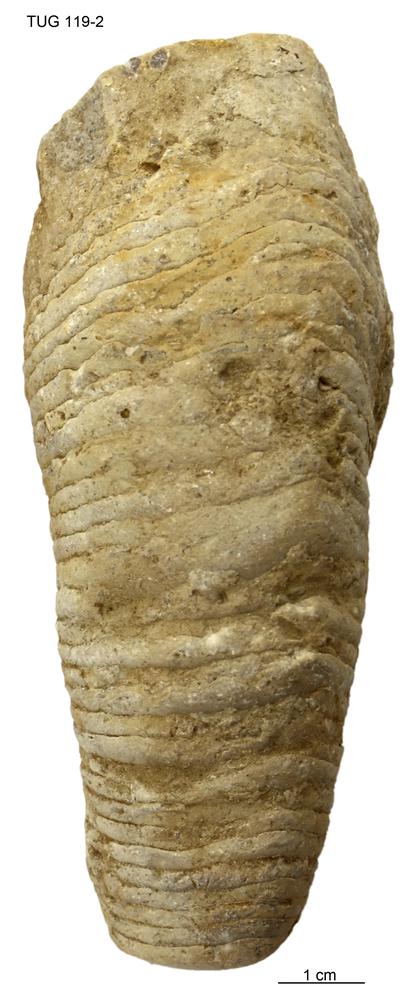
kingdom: Animalia
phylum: Mollusca
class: Cephalopoda
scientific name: Cephalopoda
